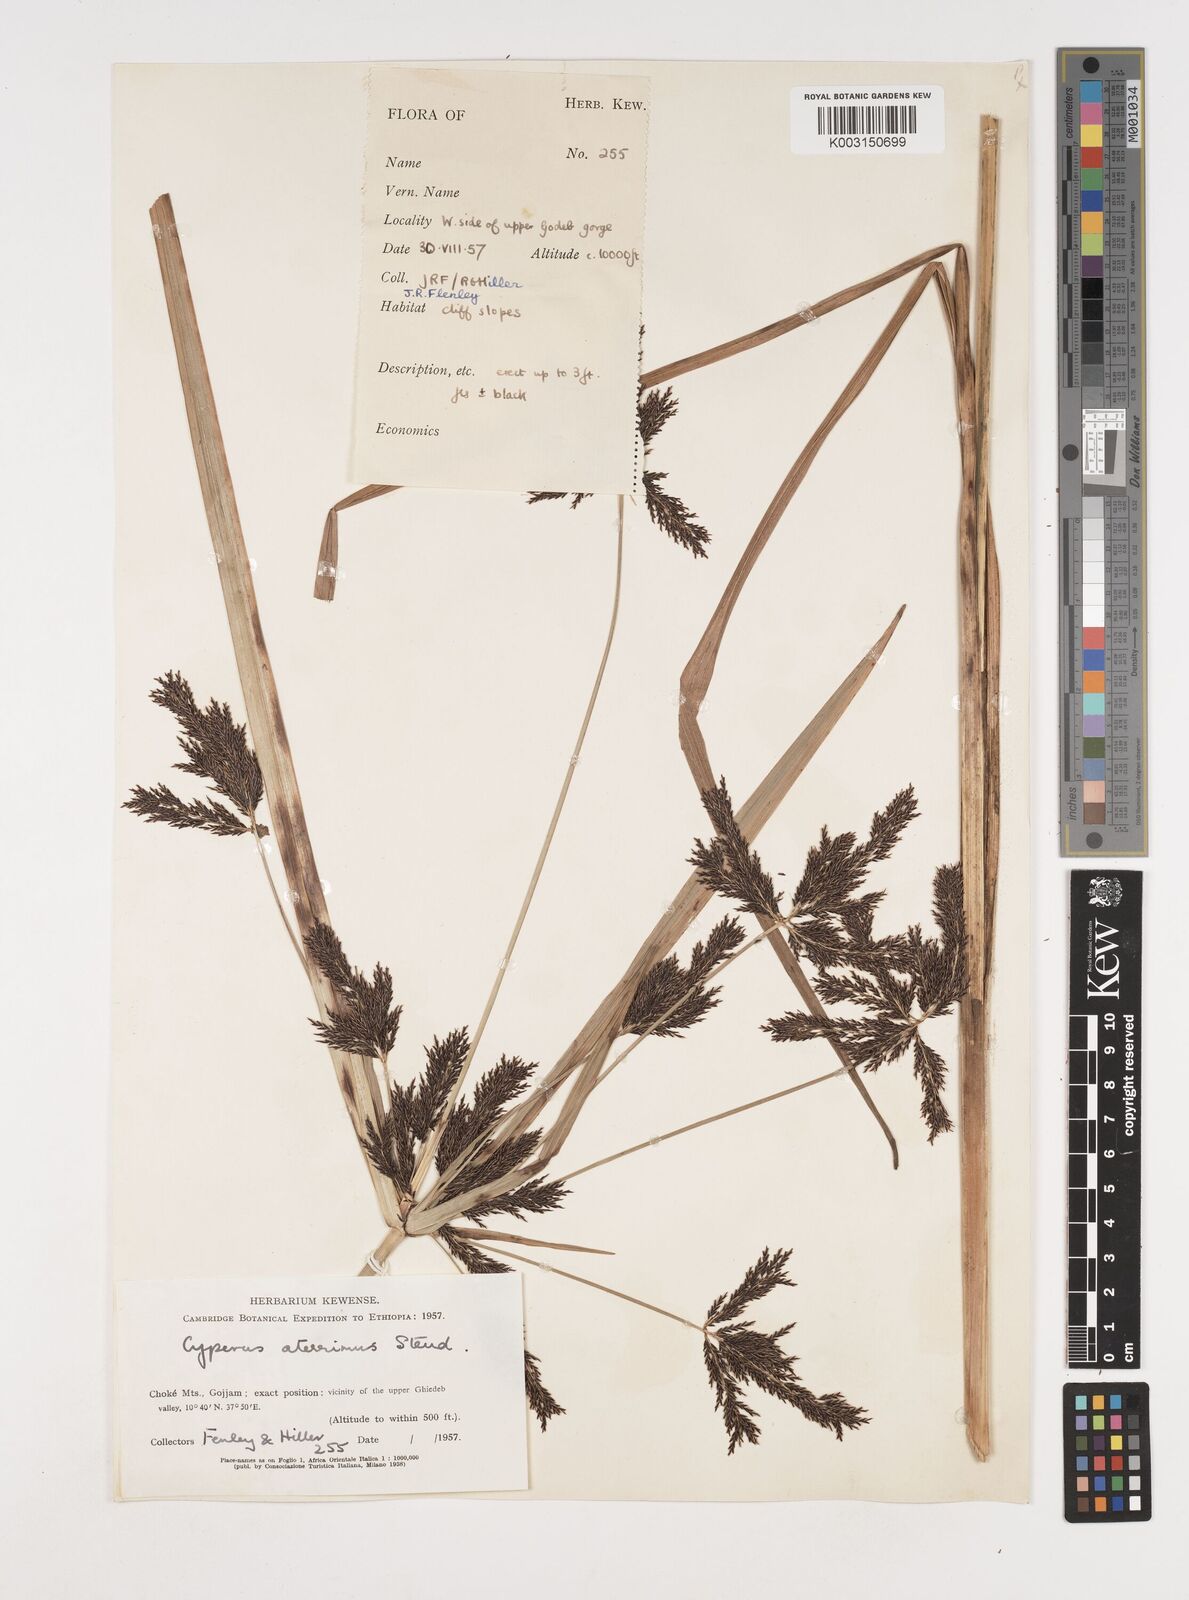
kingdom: Plantae
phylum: Tracheophyta
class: Liliopsida
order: Poales
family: Cyperaceae
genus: Cyperus
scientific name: Cyperus aterrimus
